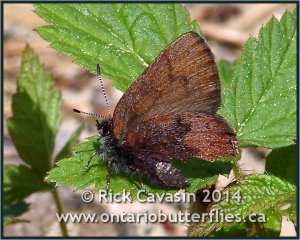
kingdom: Animalia
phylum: Arthropoda
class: Insecta
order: Lepidoptera
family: Lycaenidae
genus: Incisalia
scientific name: Incisalia irioides
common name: Brown Elfin
